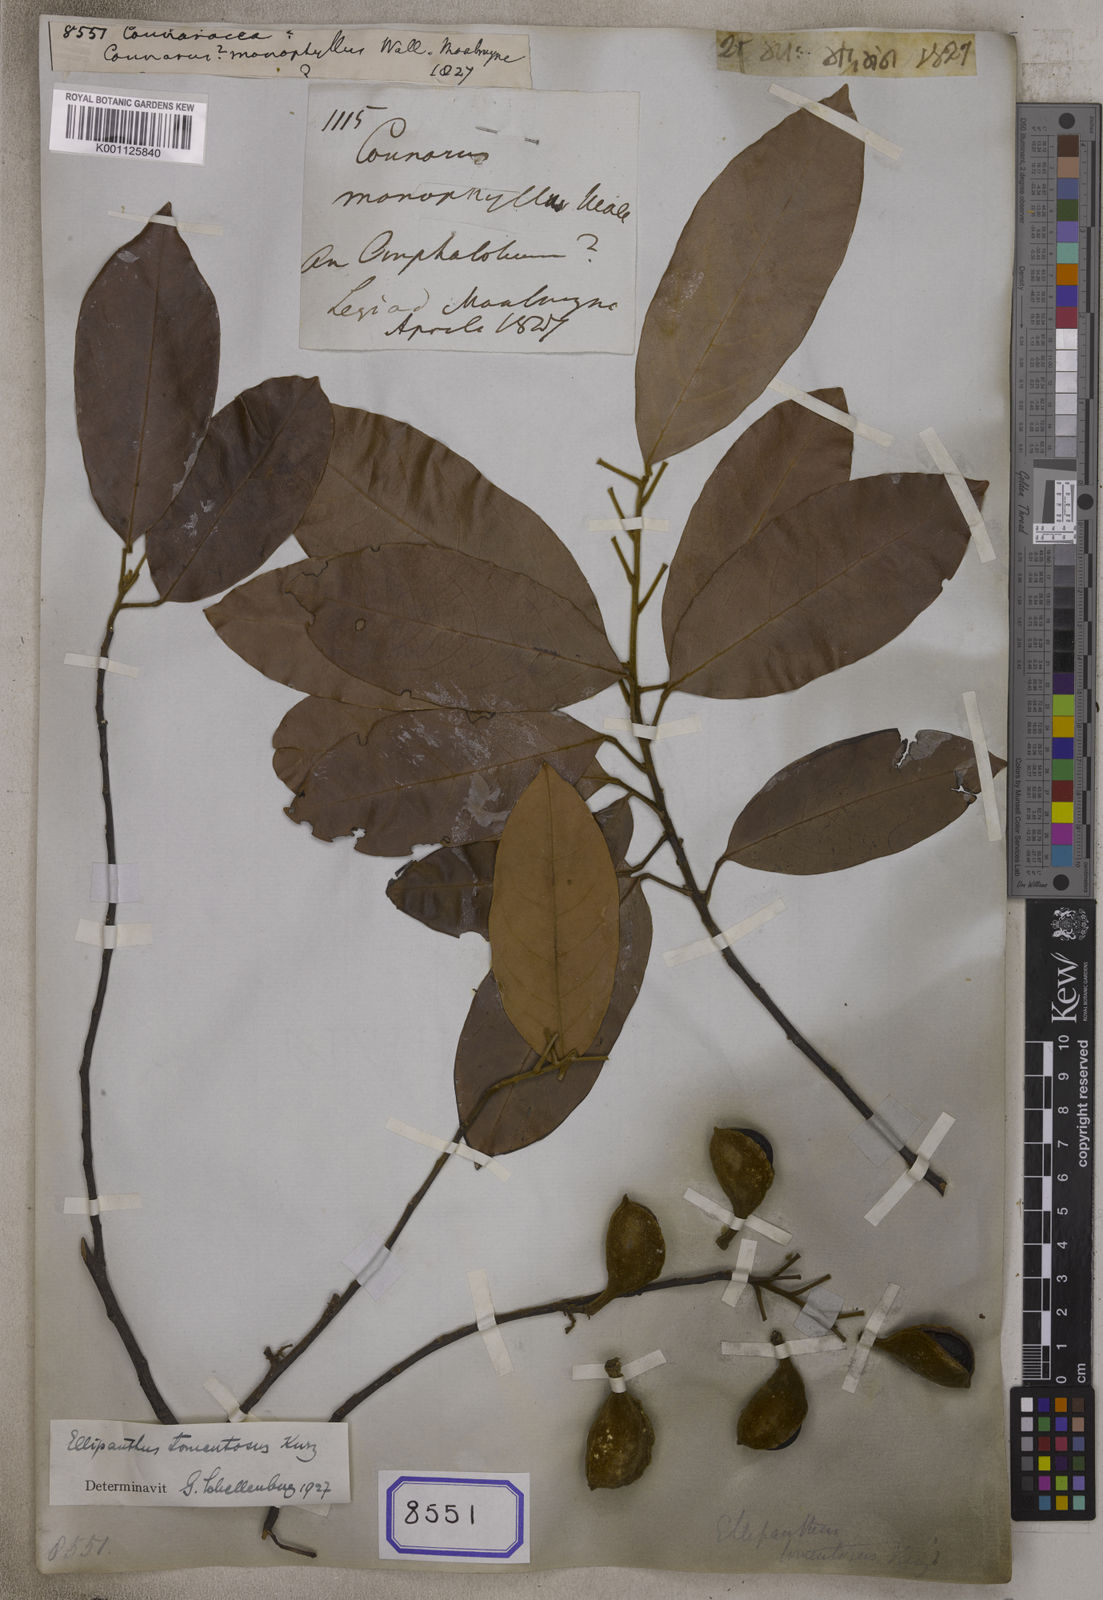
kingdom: Plantae
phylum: Tracheophyta
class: Magnoliopsida
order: Oxalidales
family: Connaraceae
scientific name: Connaraceae
